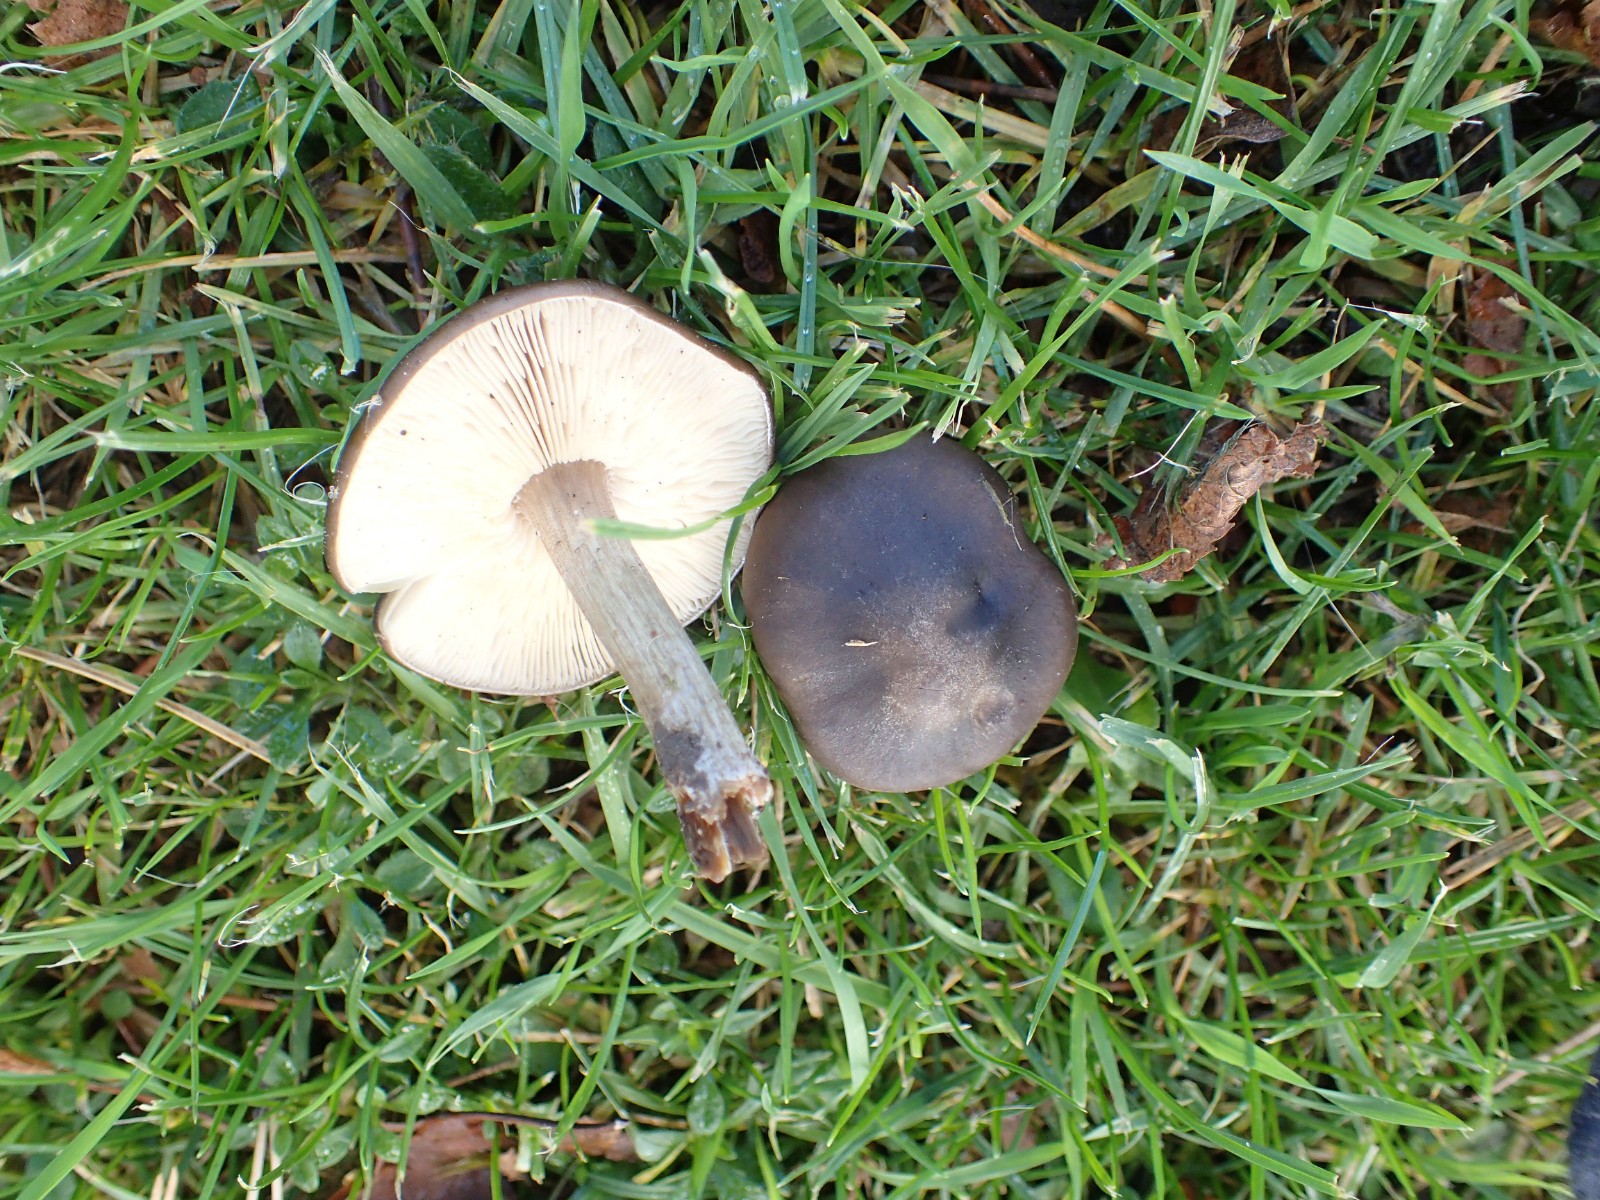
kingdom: Fungi
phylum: Basidiomycota
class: Agaricomycetes
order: Agaricales
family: Tricholomataceae
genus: Melanoleuca
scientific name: Melanoleuca
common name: munkehat
